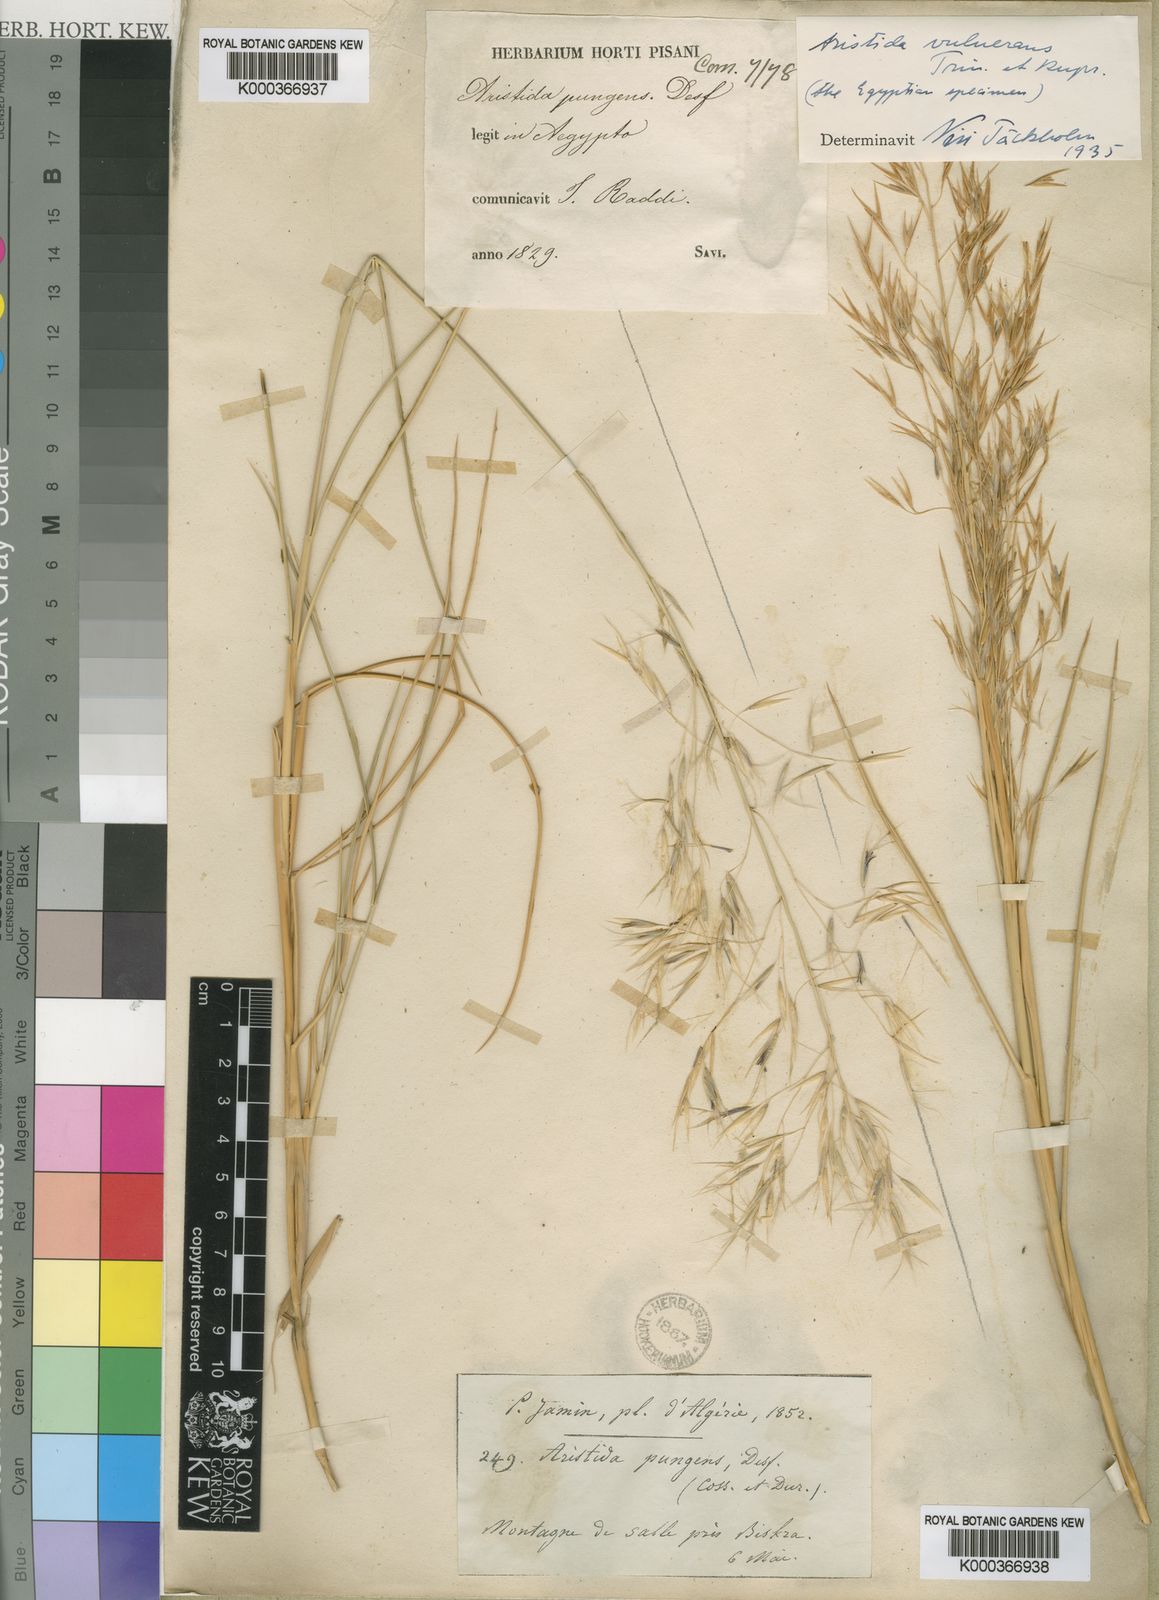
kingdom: Plantae
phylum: Tracheophyta
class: Liliopsida
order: Poales
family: Poaceae
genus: Stipagrostis
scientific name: Stipagrostis vulnerans
